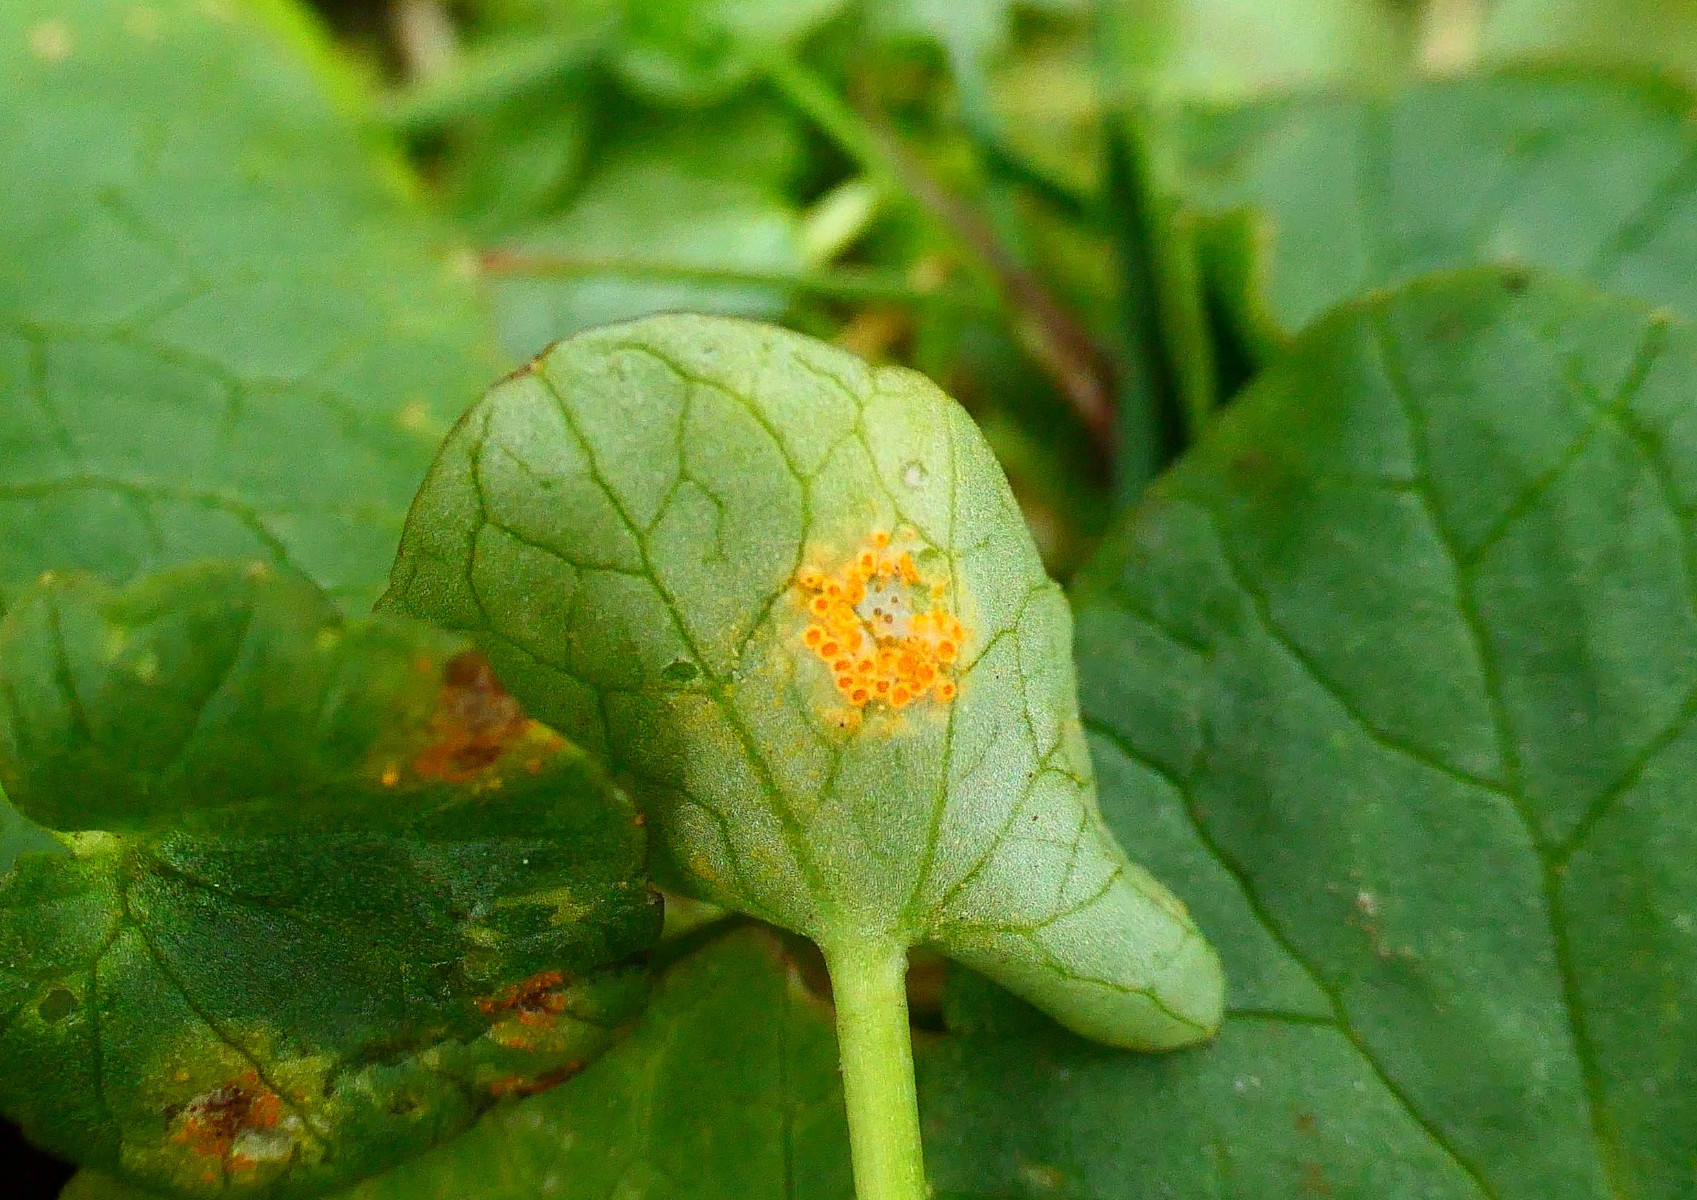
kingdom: Fungi
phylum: Basidiomycota
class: Pucciniomycetes
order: Pucciniales
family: Pucciniaceae
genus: Uromyces
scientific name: Uromyces dactylidis
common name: ranunkel-encellerust
